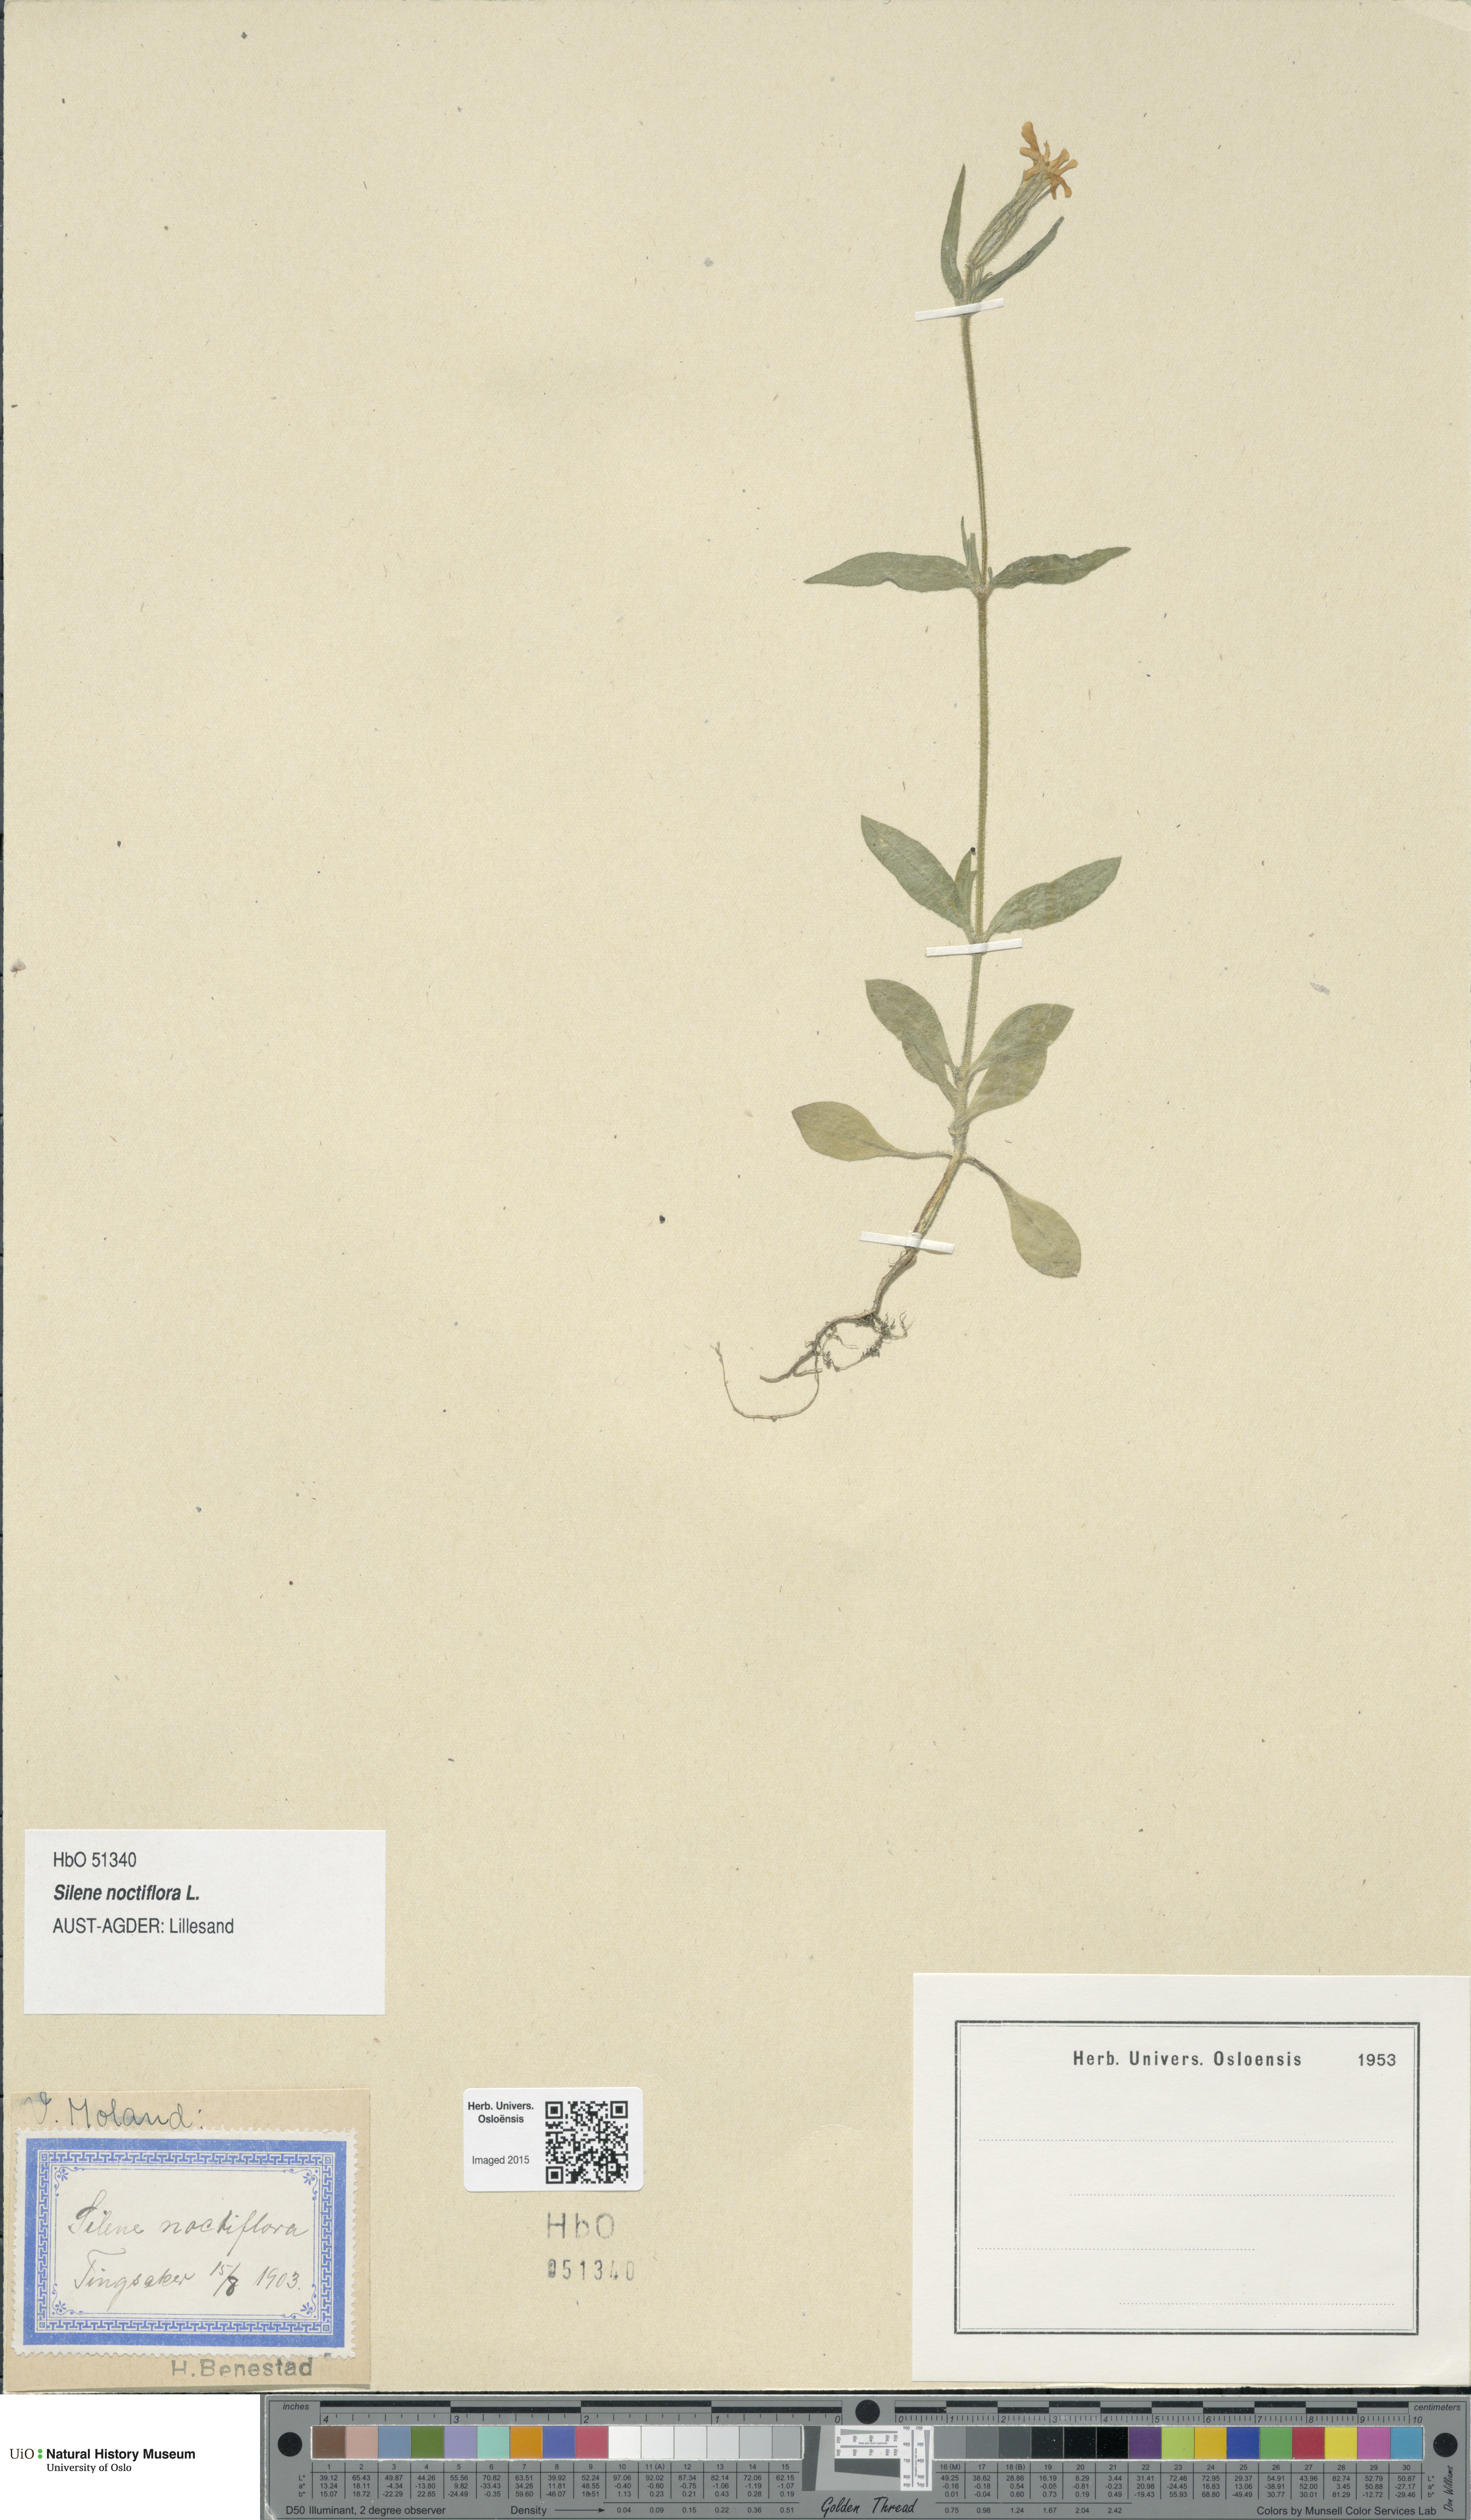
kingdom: Plantae
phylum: Tracheophyta
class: Magnoliopsida
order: Caryophyllales
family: Caryophyllaceae
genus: Silene
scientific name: Silene noctiflora
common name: Night-flowering catchfly
